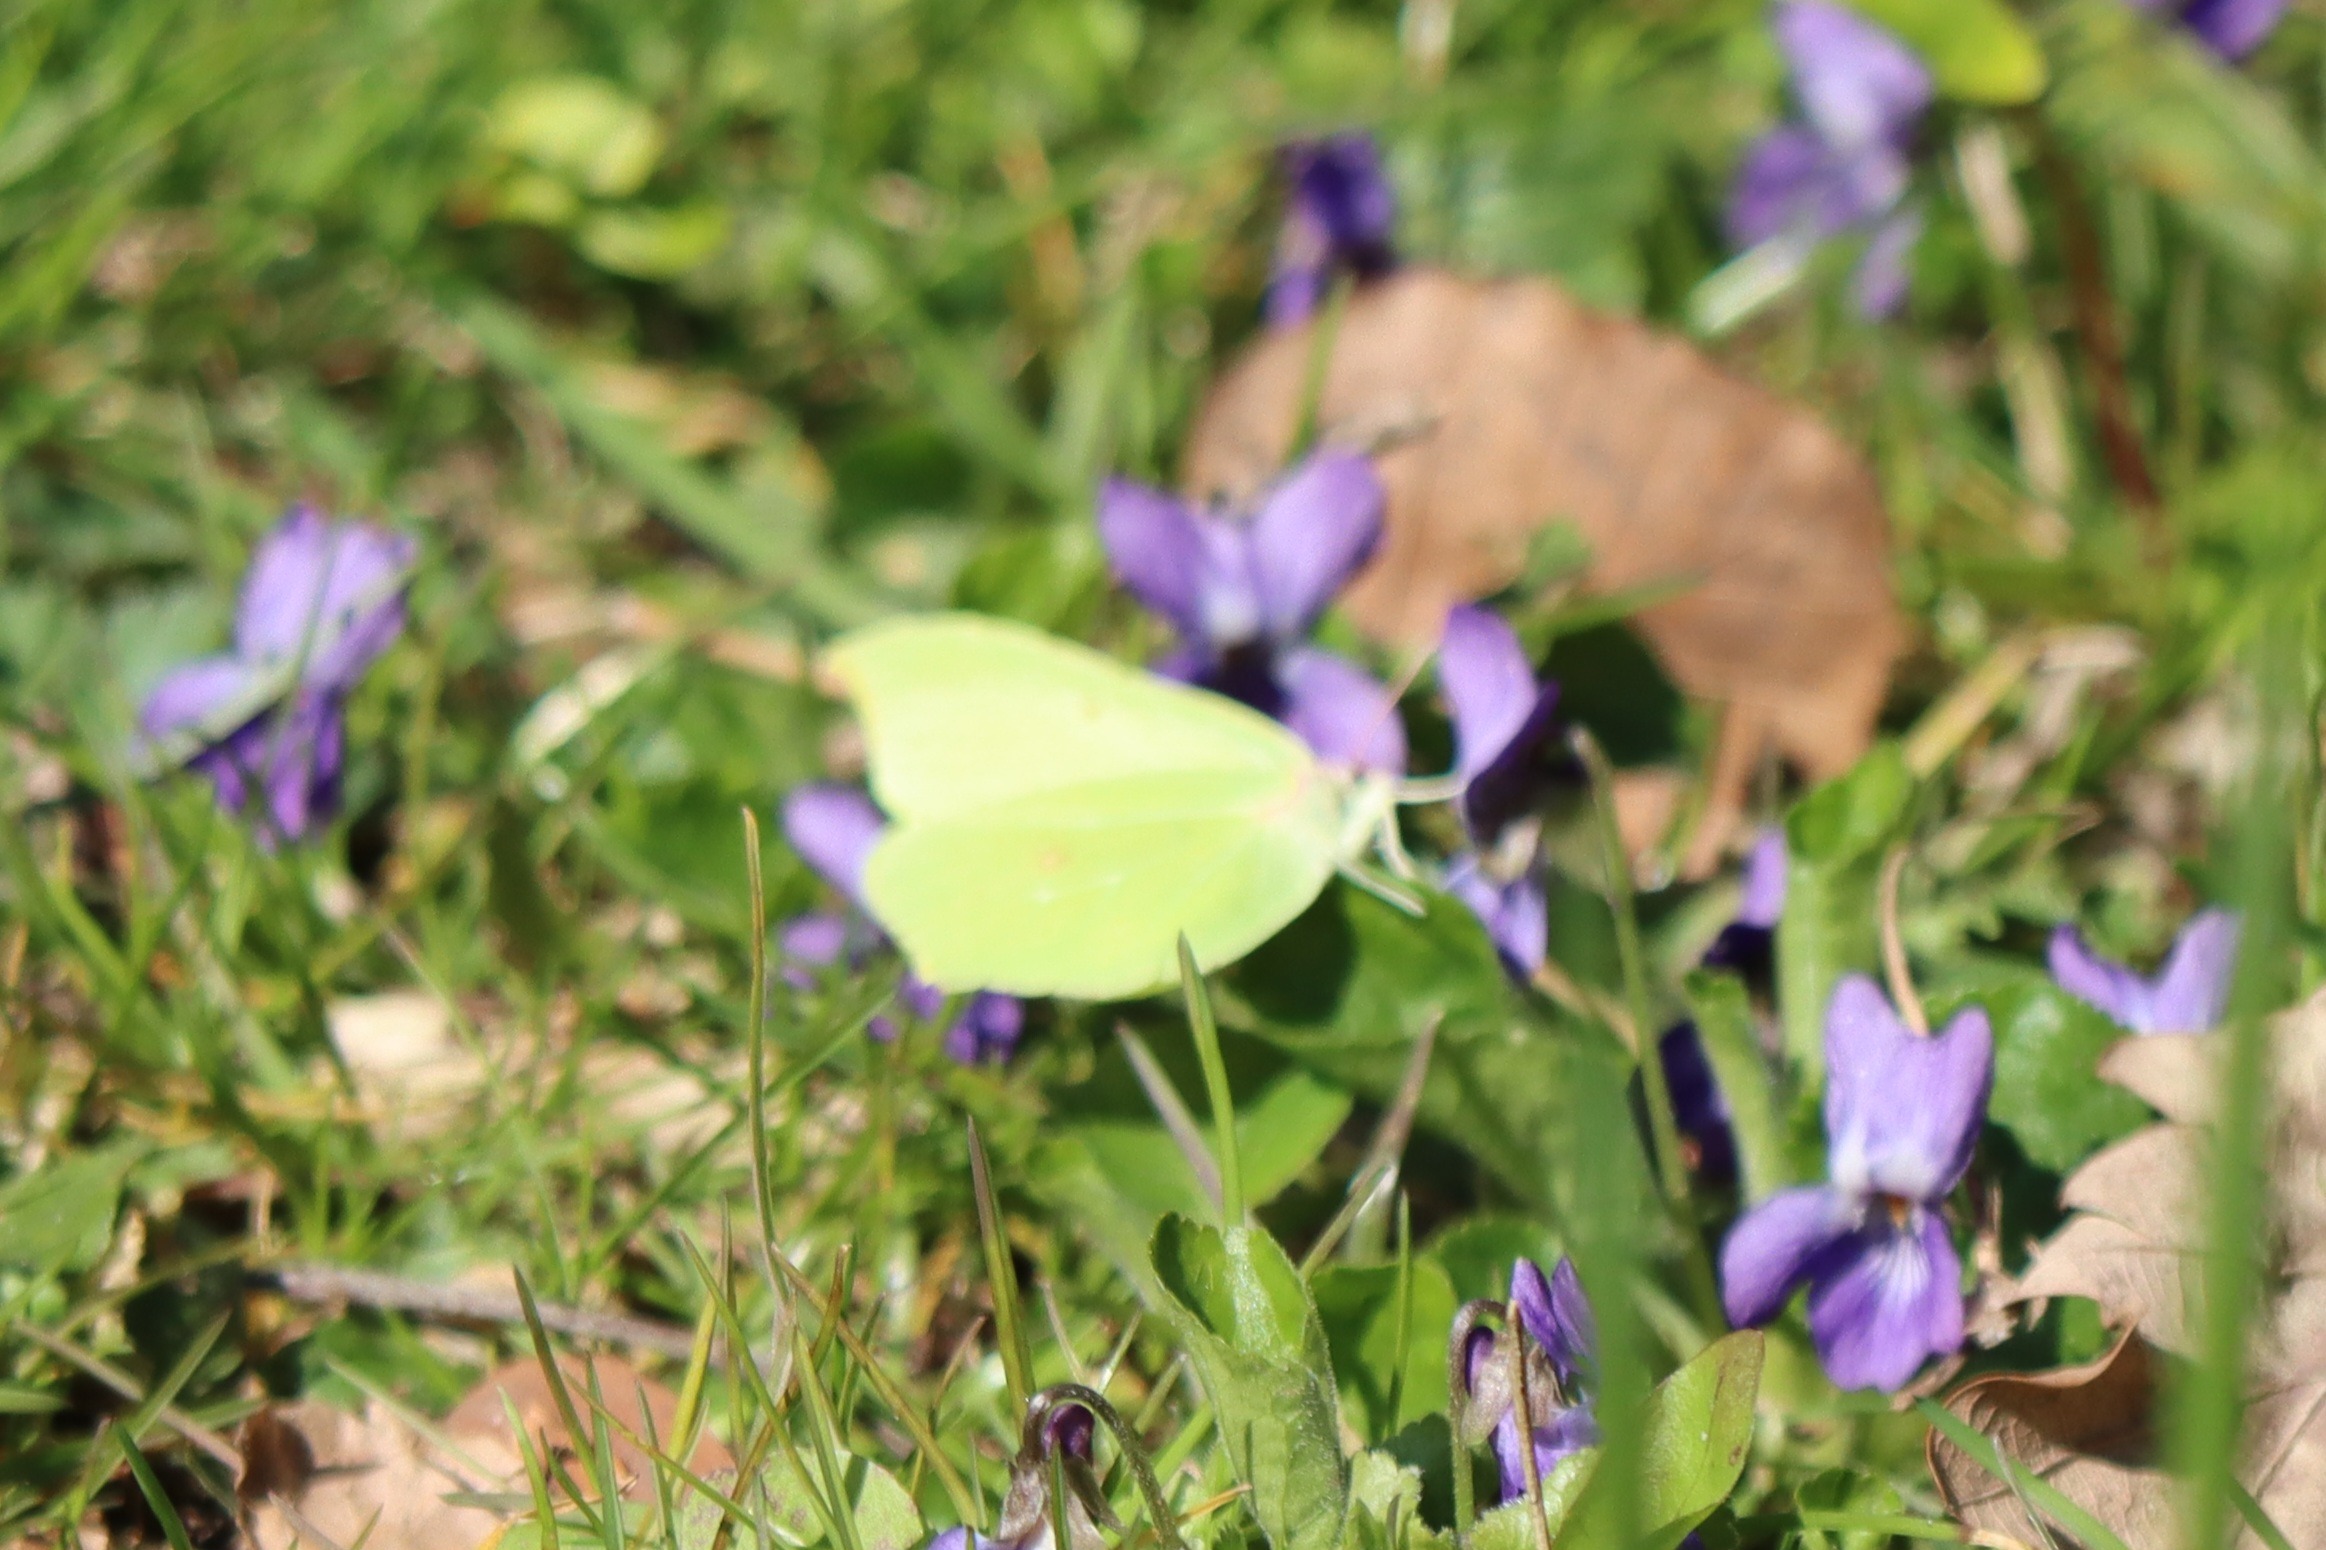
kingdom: Animalia
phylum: Arthropoda
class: Insecta
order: Lepidoptera
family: Pieridae
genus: Gonepteryx
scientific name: Gonepteryx rhamni
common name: Citronsommerfugl
